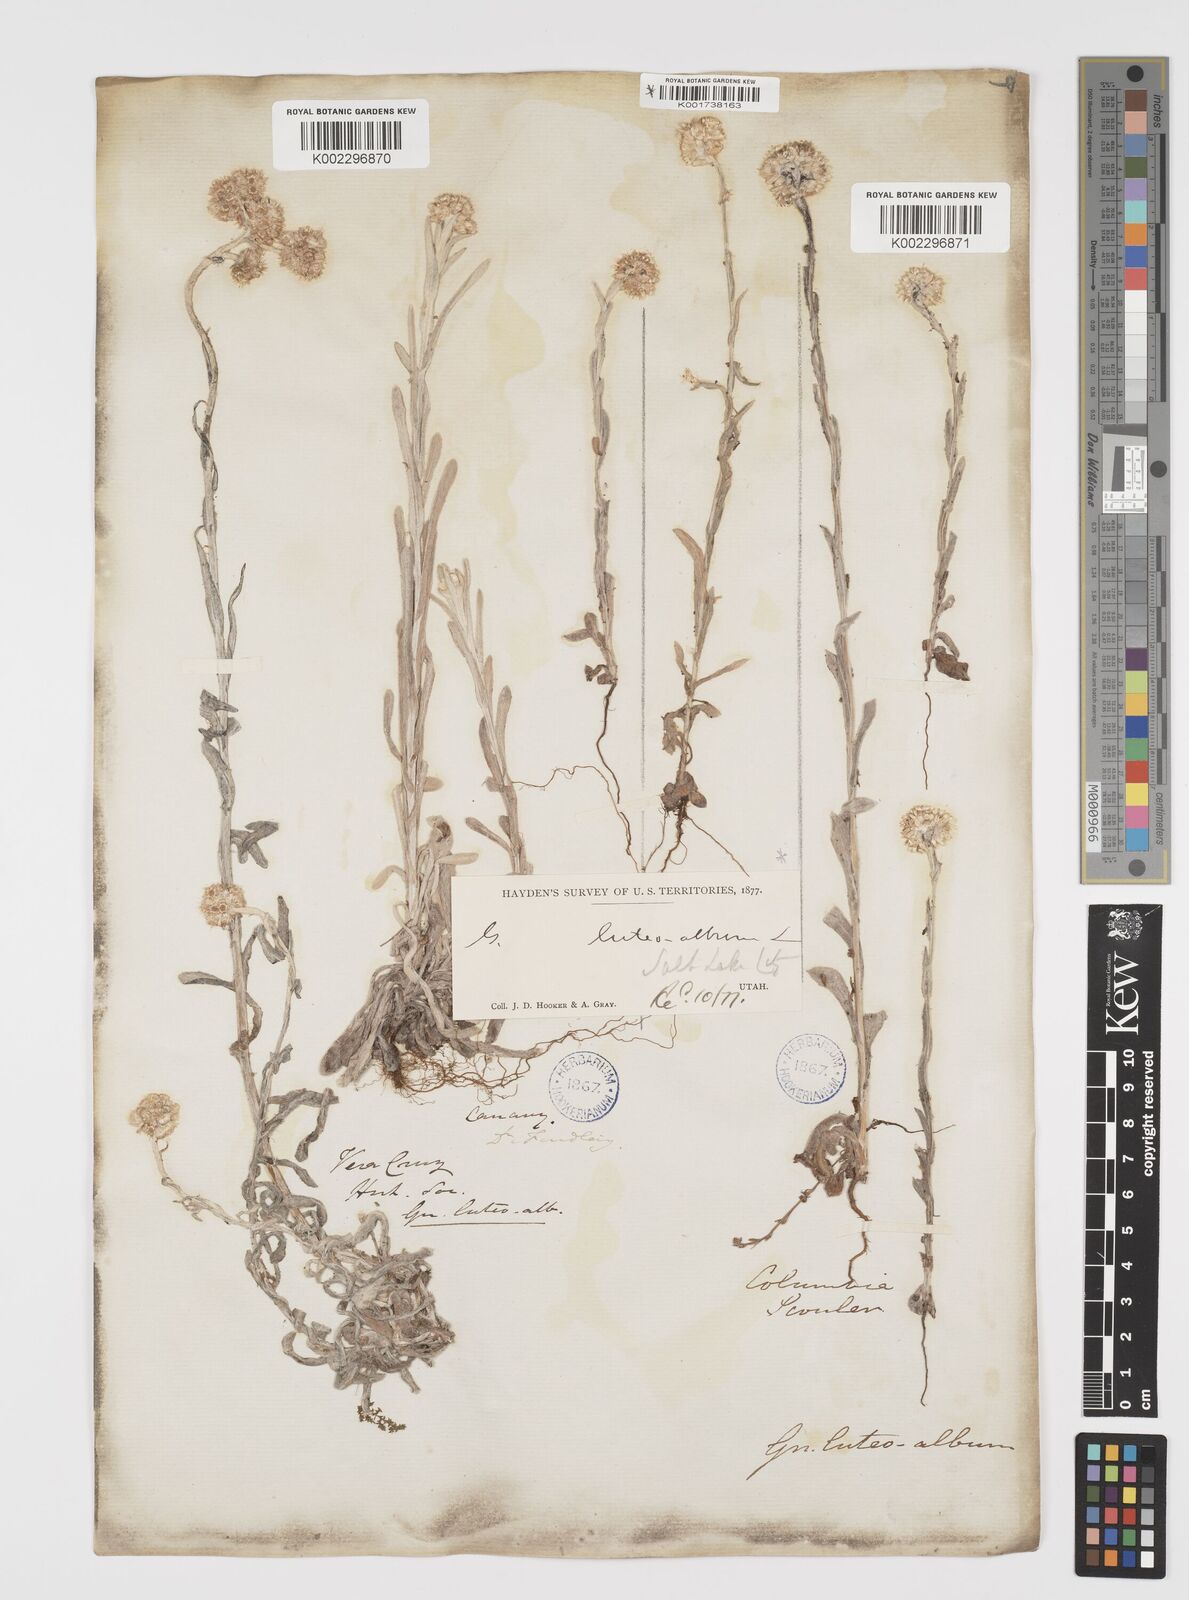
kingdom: Plantae
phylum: Tracheophyta
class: Magnoliopsida
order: Asterales
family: Asteraceae
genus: Helichrysum
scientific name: Helichrysum luteoalbum
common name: Daisy
